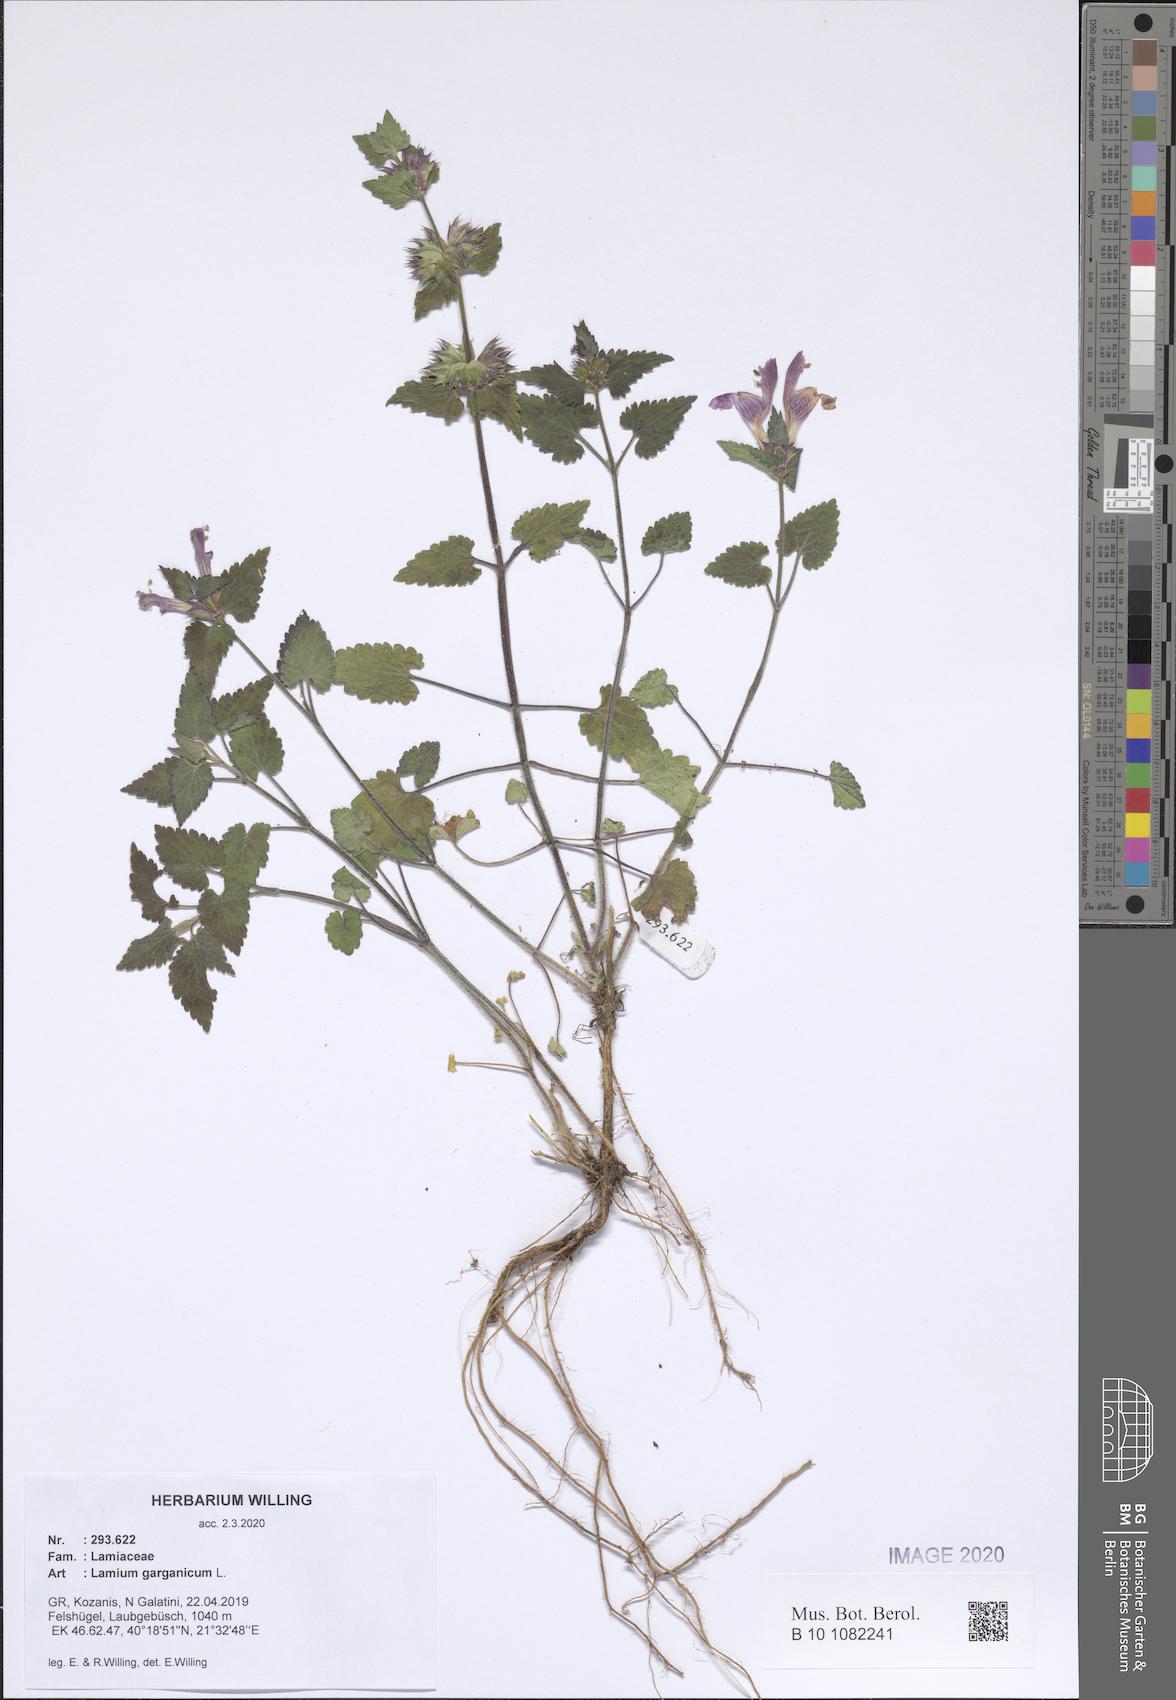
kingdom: Plantae
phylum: Tracheophyta
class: Magnoliopsida
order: Lamiales
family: Lamiaceae
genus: Lamium
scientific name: Lamium garganicum
